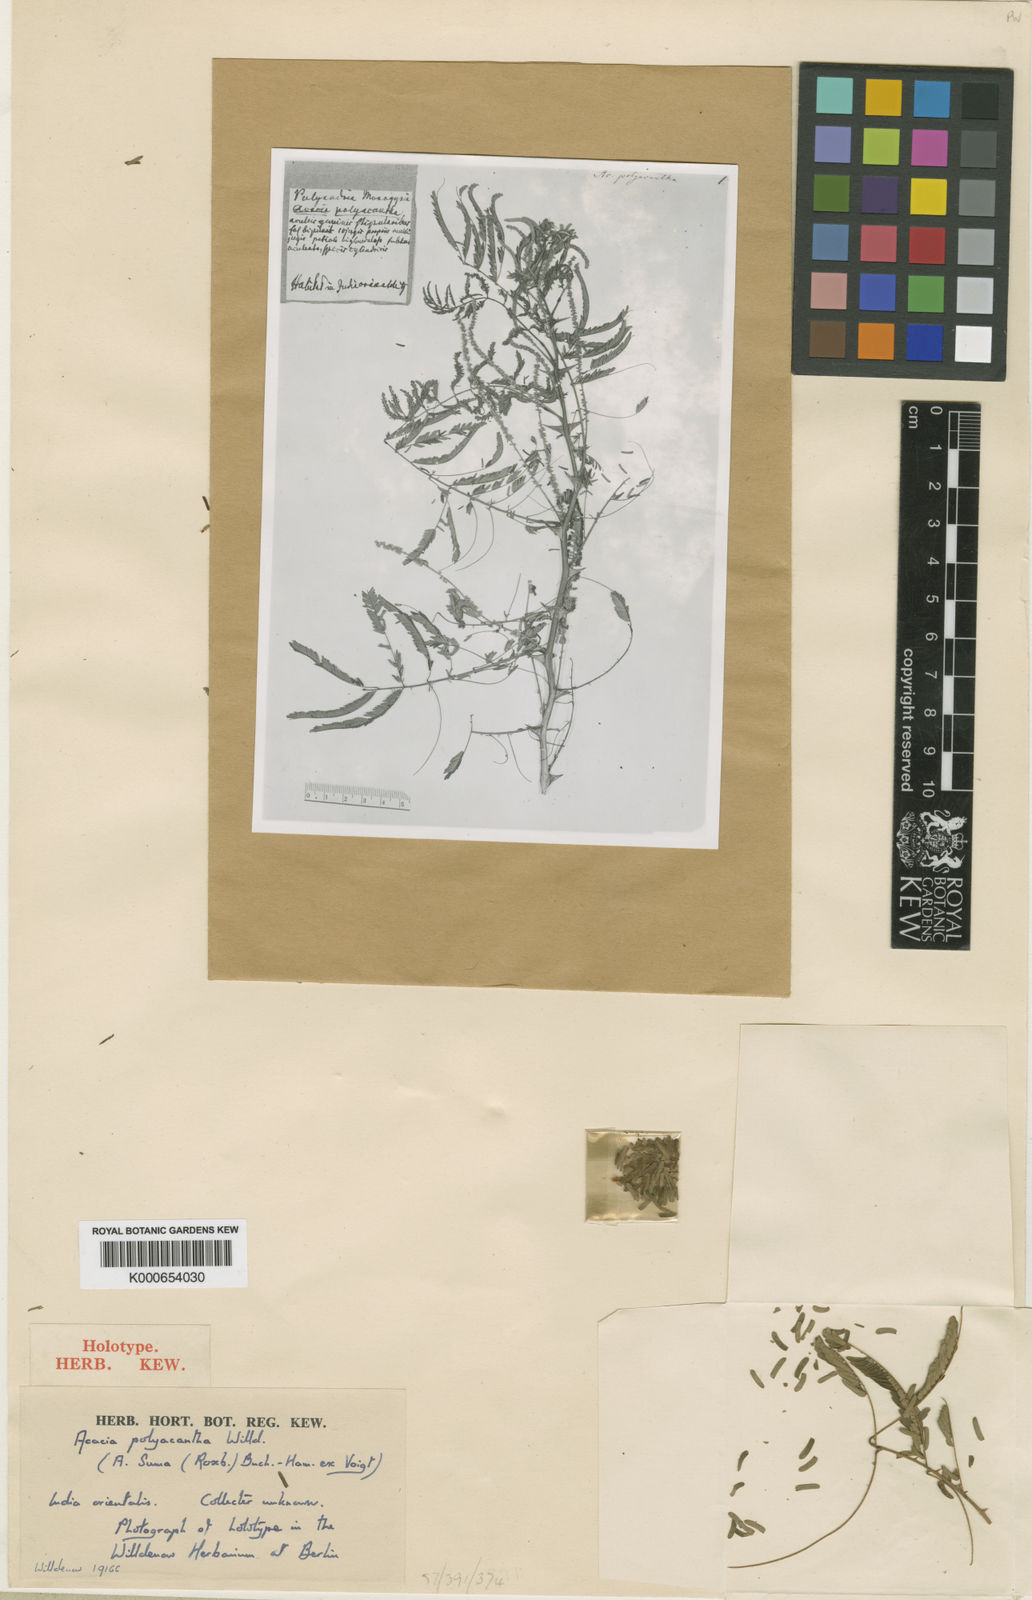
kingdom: Plantae
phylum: Tracheophyta
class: Magnoliopsida
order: Fabales
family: Fabaceae
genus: Senegalia
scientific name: Senegalia polyacantha
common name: Whitethorn
